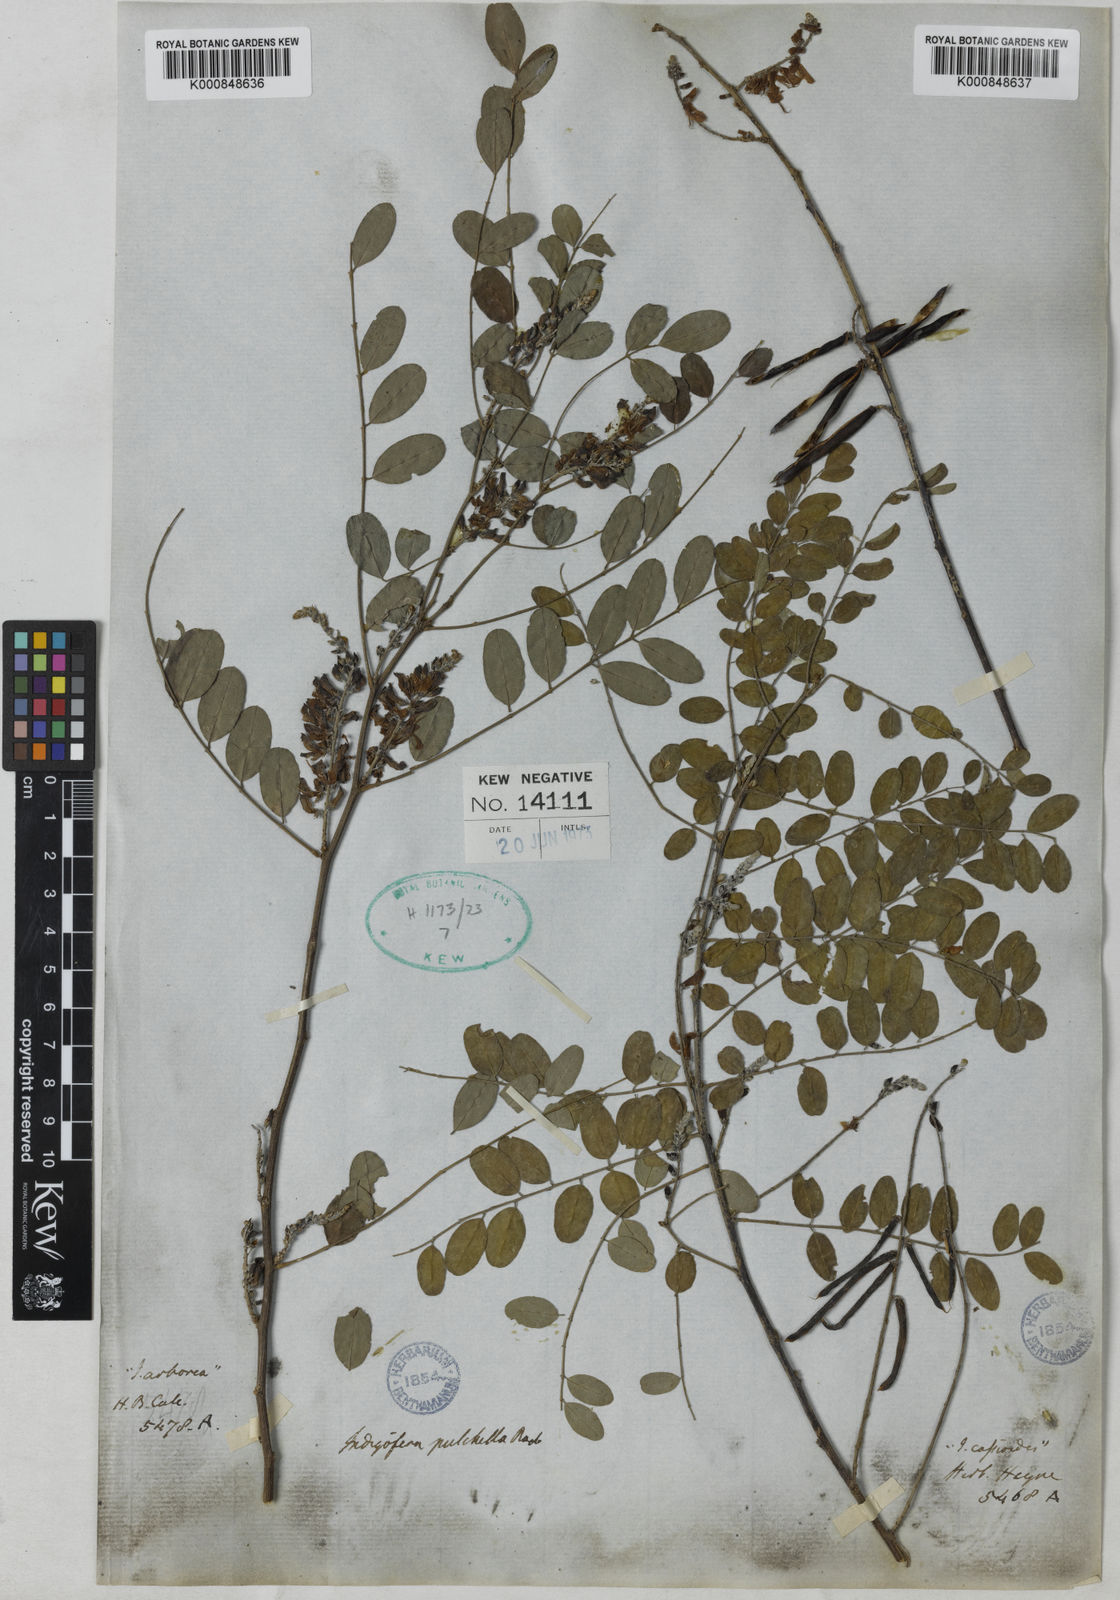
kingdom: Plantae
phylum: Tracheophyta
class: Magnoliopsida
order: Fabales
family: Fabaceae
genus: Indigofera
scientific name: Indigofera cassioides
